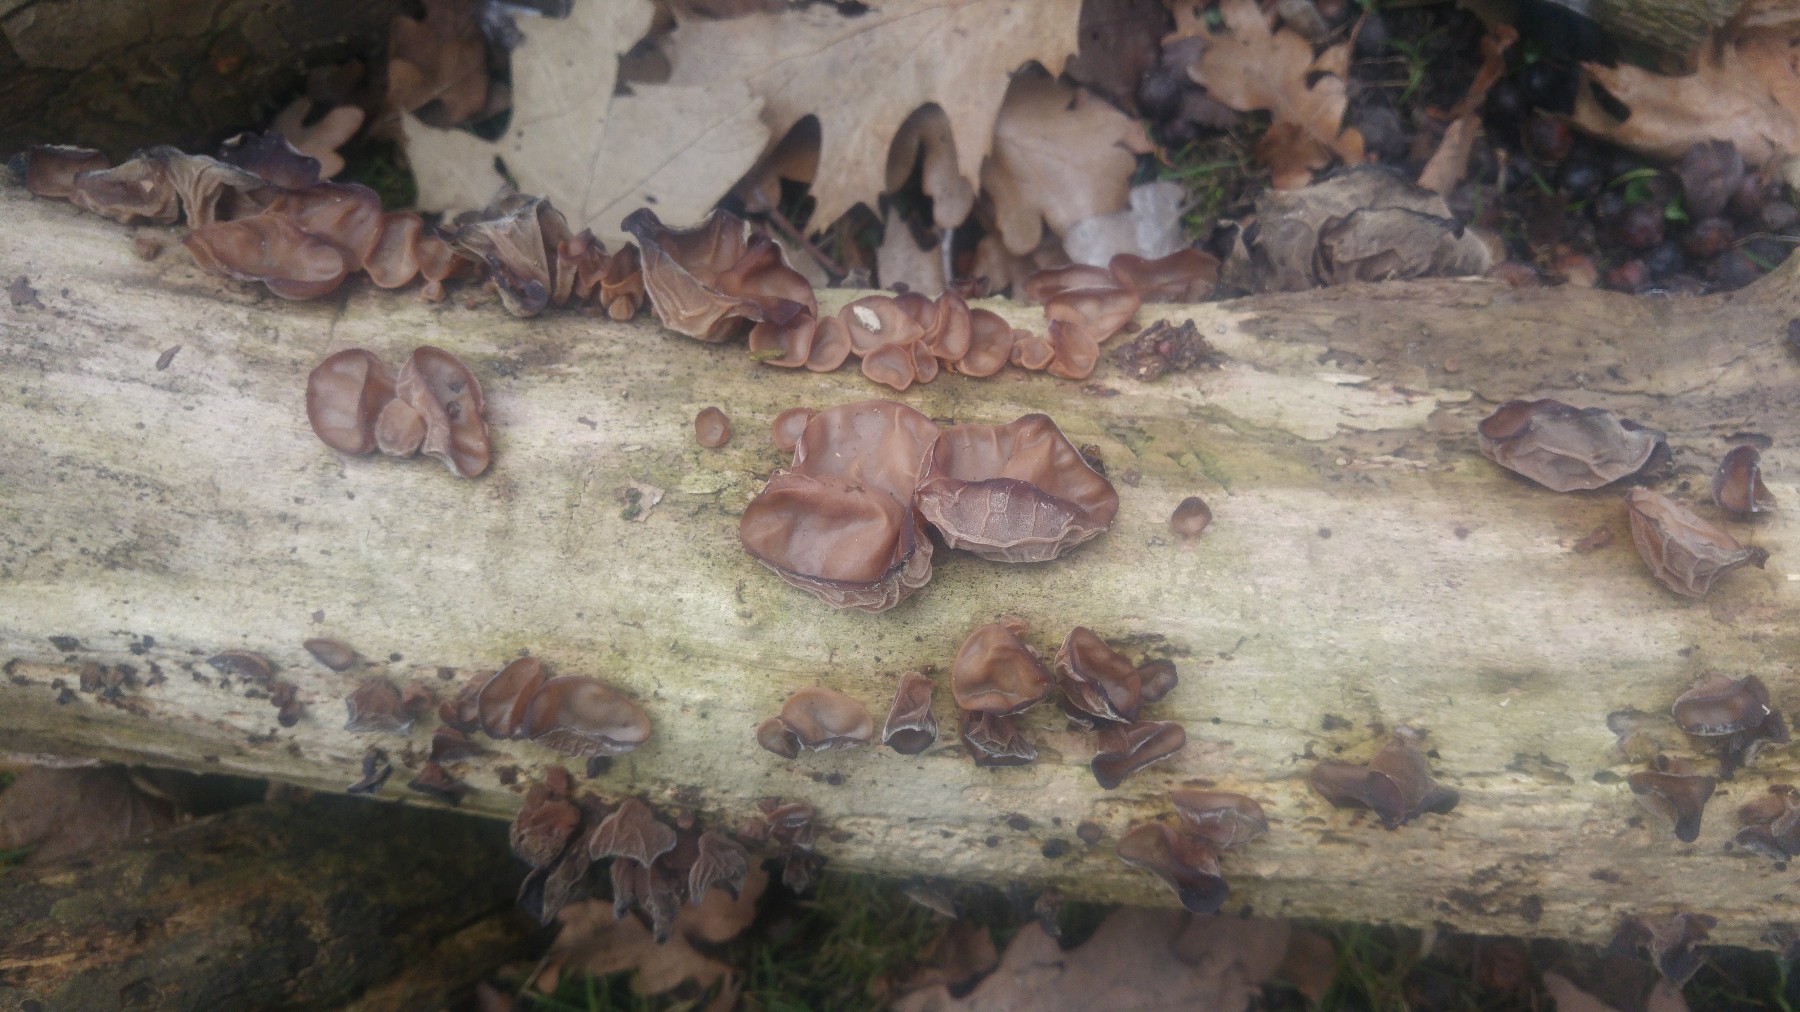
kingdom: Fungi
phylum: Basidiomycota
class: Agaricomycetes
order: Auriculariales
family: Auriculariaceae
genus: Auricularia
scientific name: Auricularia auricula-judae
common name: almindelig judasøre
